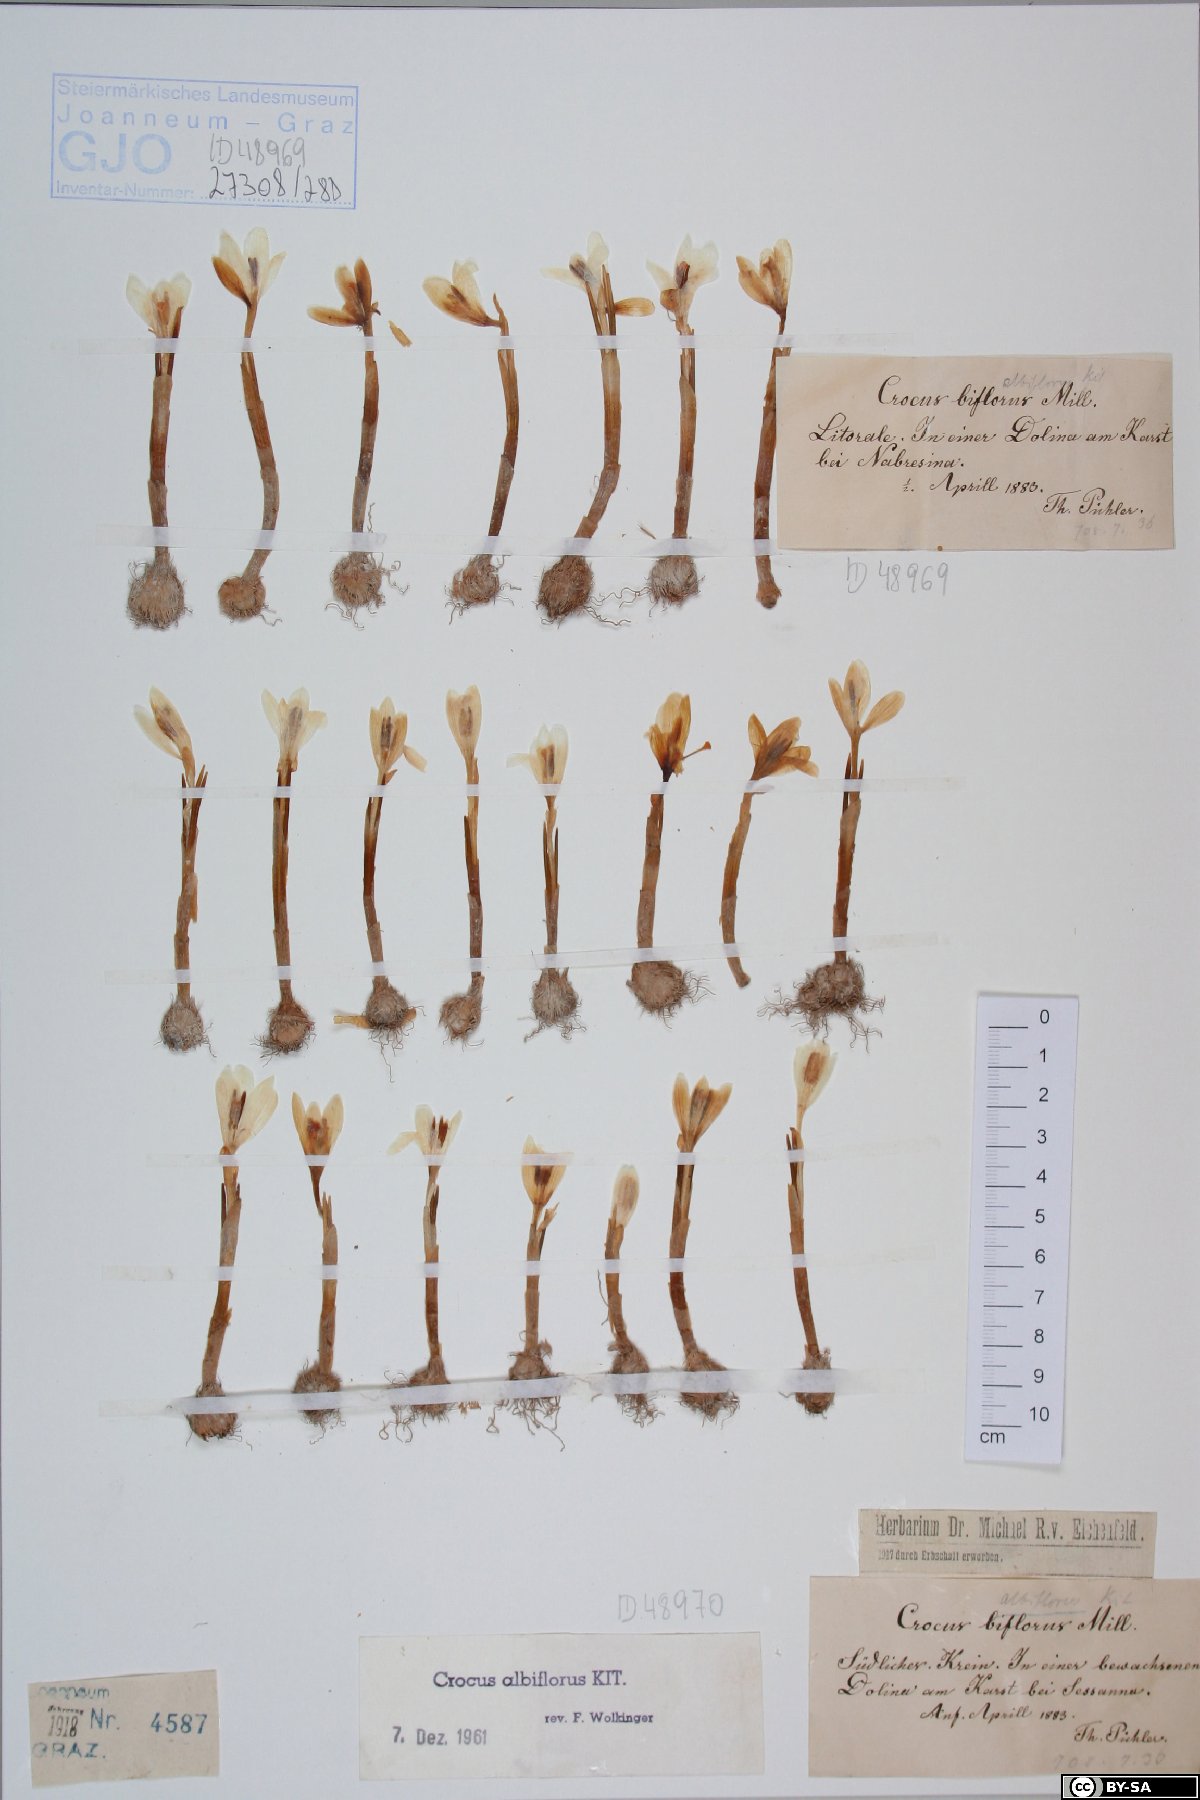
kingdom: Plantae
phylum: Tracheophyta
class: Liliopsida
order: Asparagales
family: Iridaceae
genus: Crocus
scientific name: Crocus biflorus
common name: Silvery crocus
